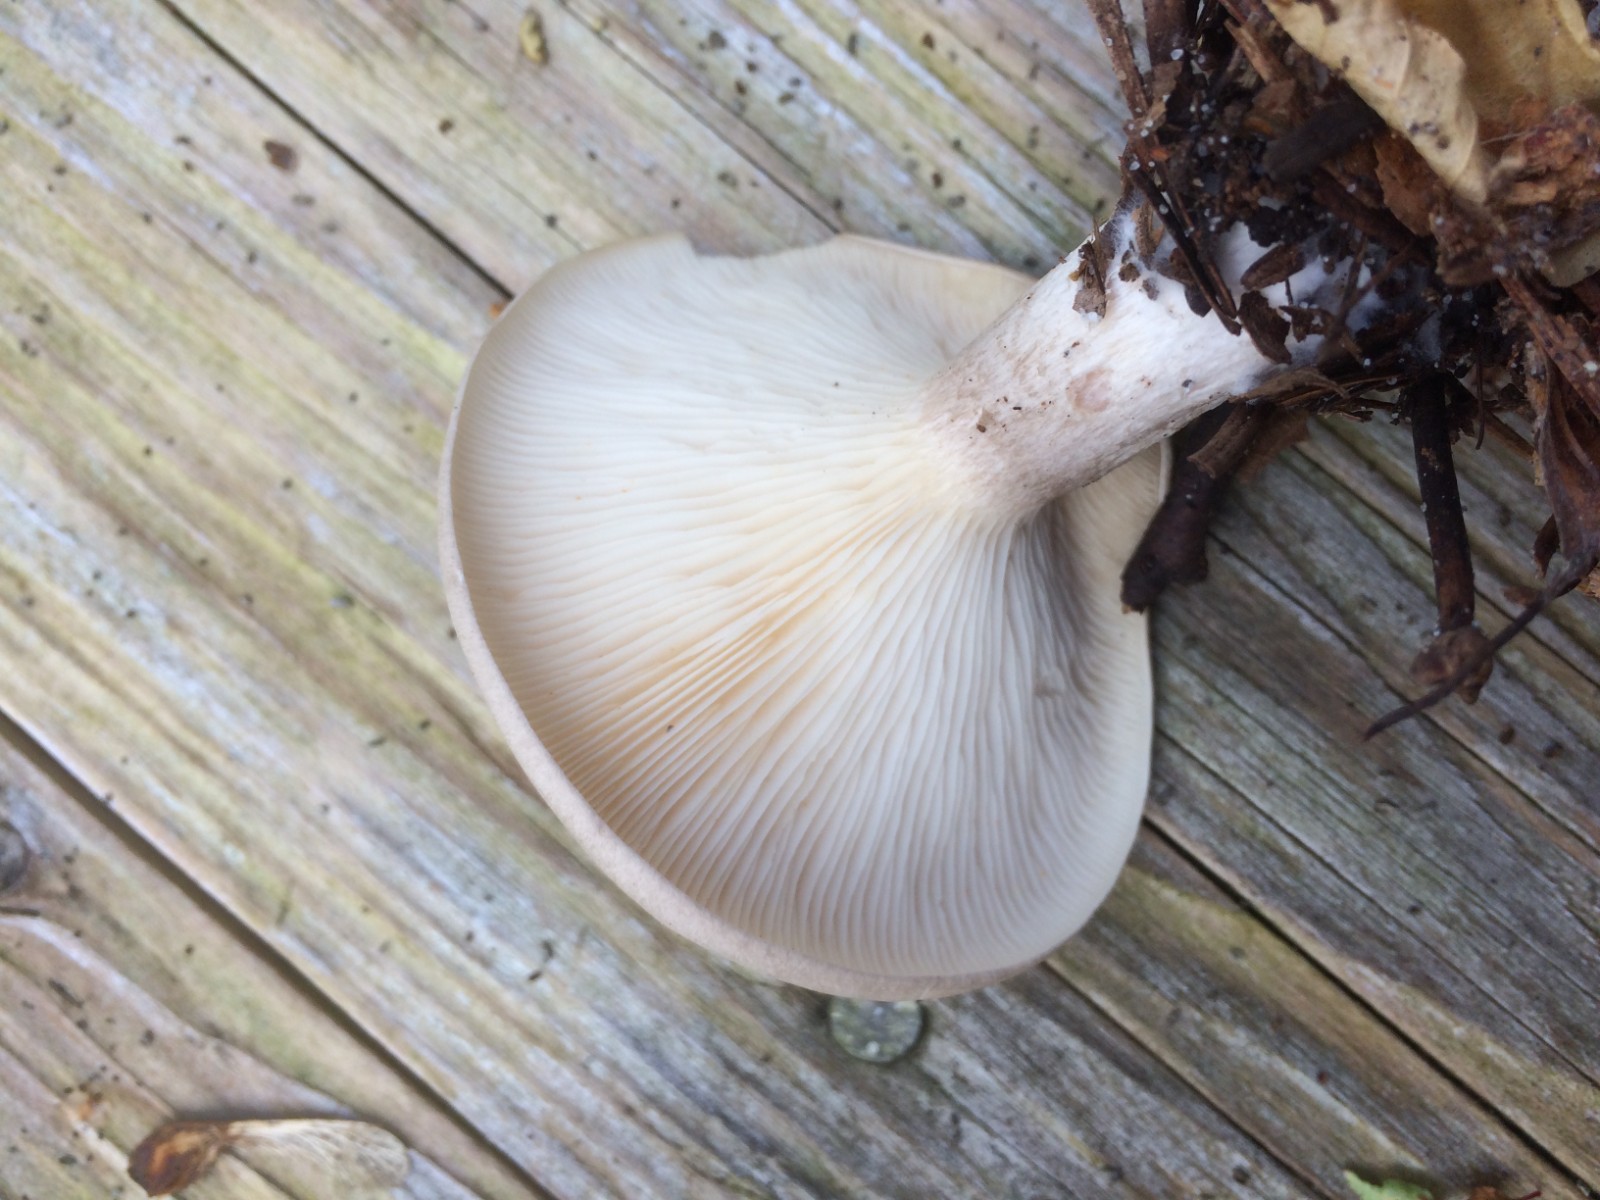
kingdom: Fungi
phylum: Basidiomycota
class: Agaricomycetes
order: Agaricales
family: Tricholomataceae
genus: Clitocybe
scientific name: Clitocybe nebularis
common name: tåge-tragthat
